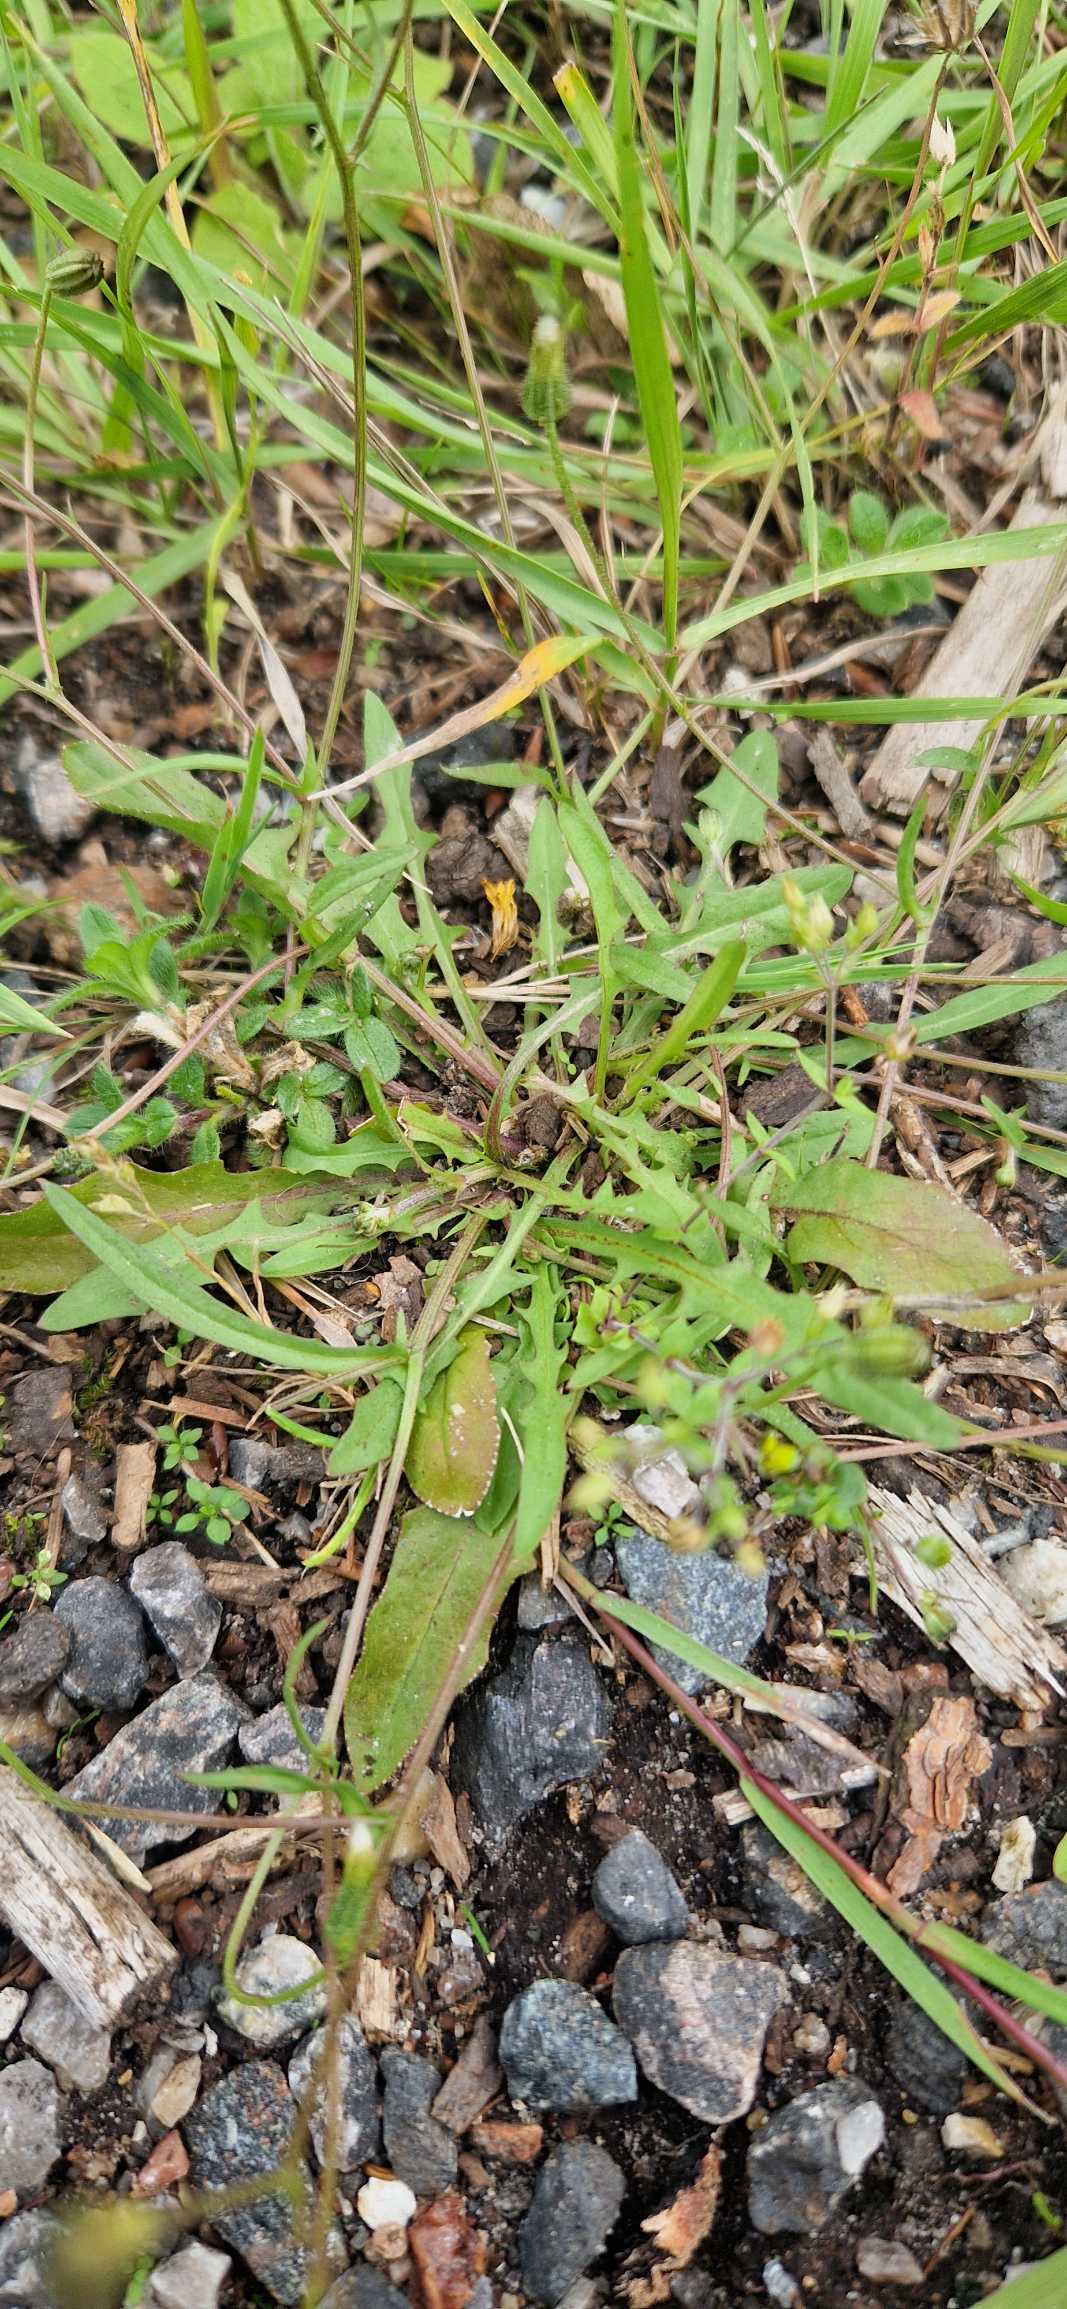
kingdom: Plantae
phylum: Tracheophyta
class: Magnoliopsida
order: Asterales
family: Asteraceae
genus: Crepis
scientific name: Crepis capillaris
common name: Grøn høgeskæg
